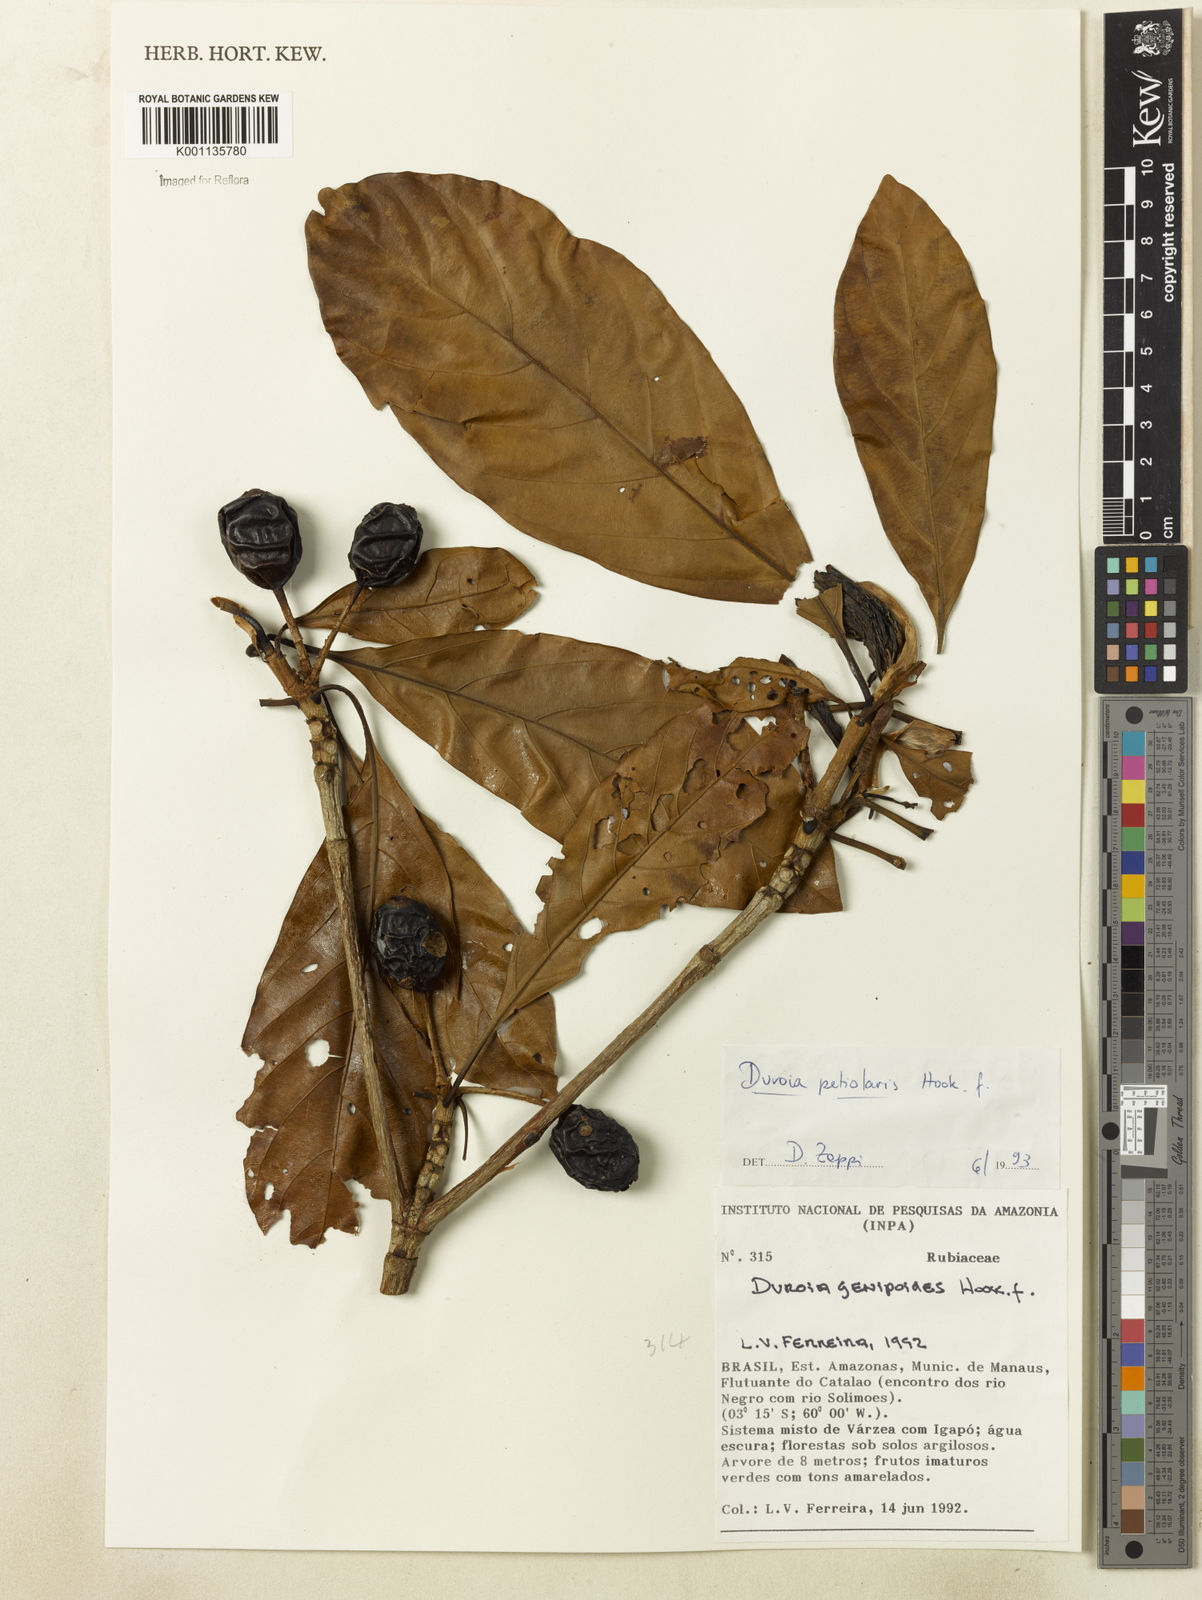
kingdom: Plantae
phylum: Tracheophyta
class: Magnoliopsida
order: Gentianales
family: Rubiaceae
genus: Duroia
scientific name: Duroia petiolaris
